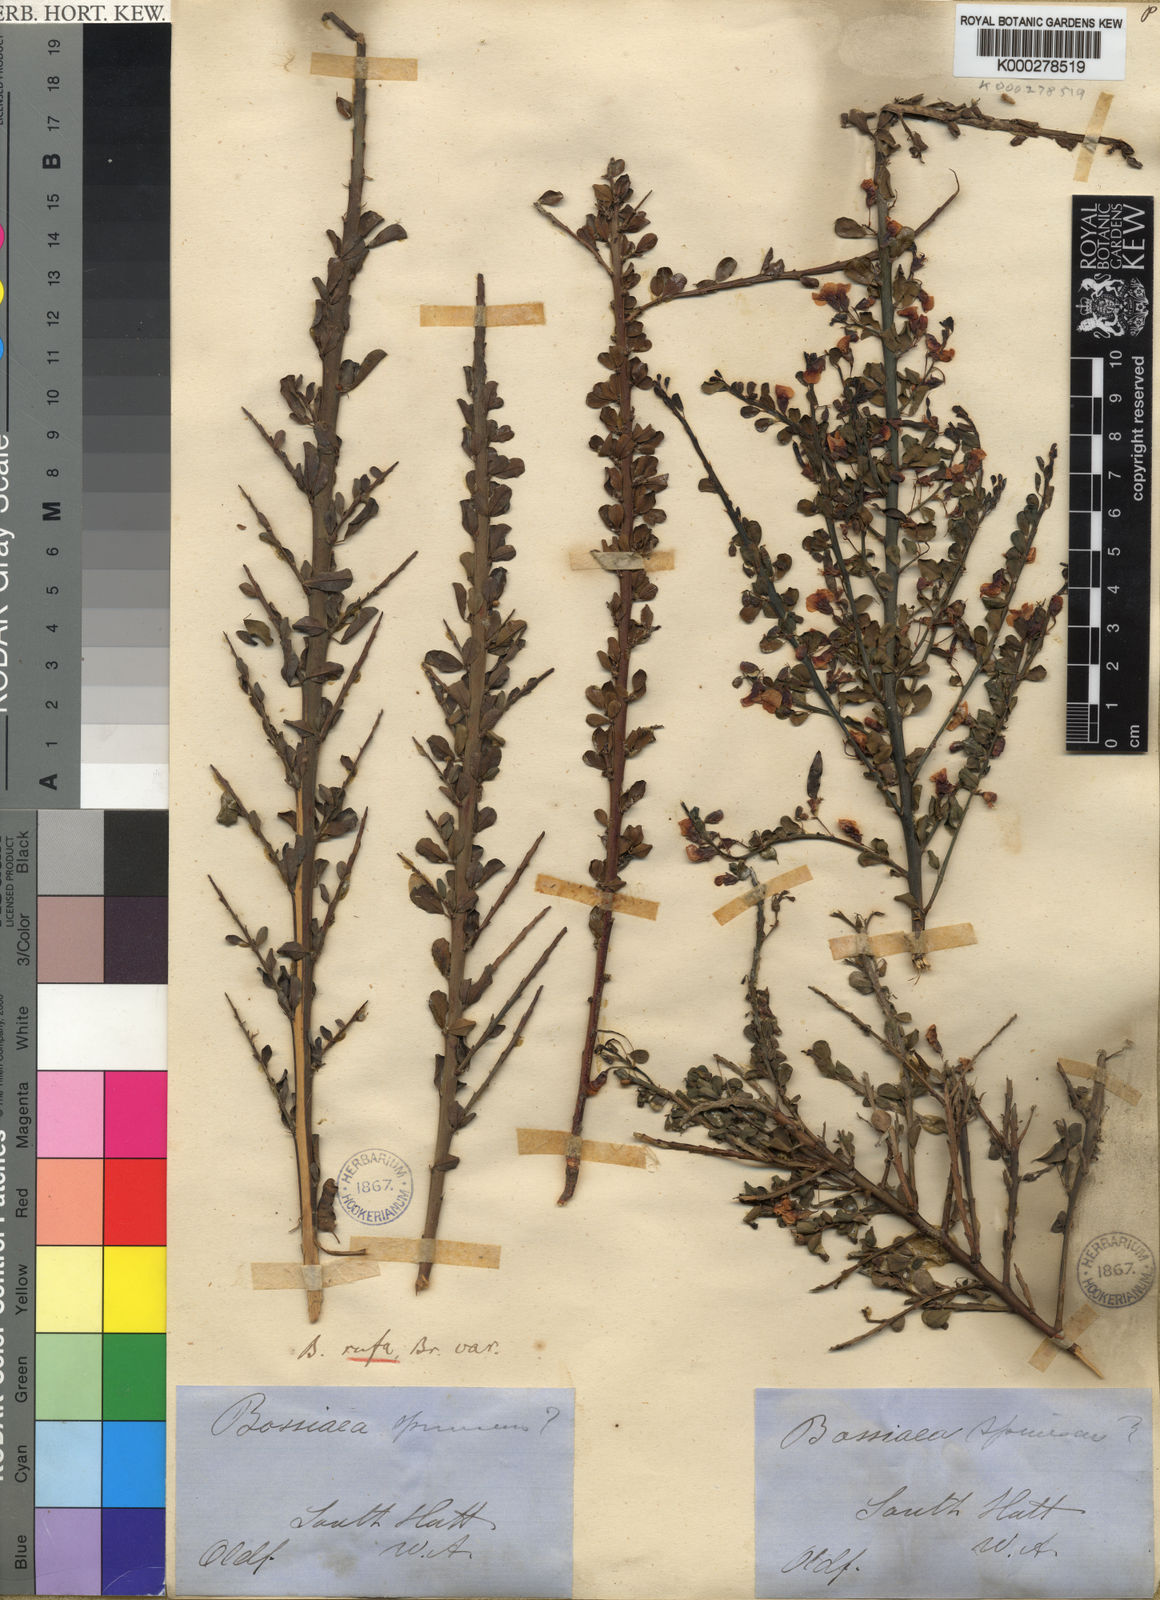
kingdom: Plantae
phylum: Tracheophyta
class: Magnoliopsida
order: Fabales
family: Fabaceae
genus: Bossiaea
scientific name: Bossiaea rufa
